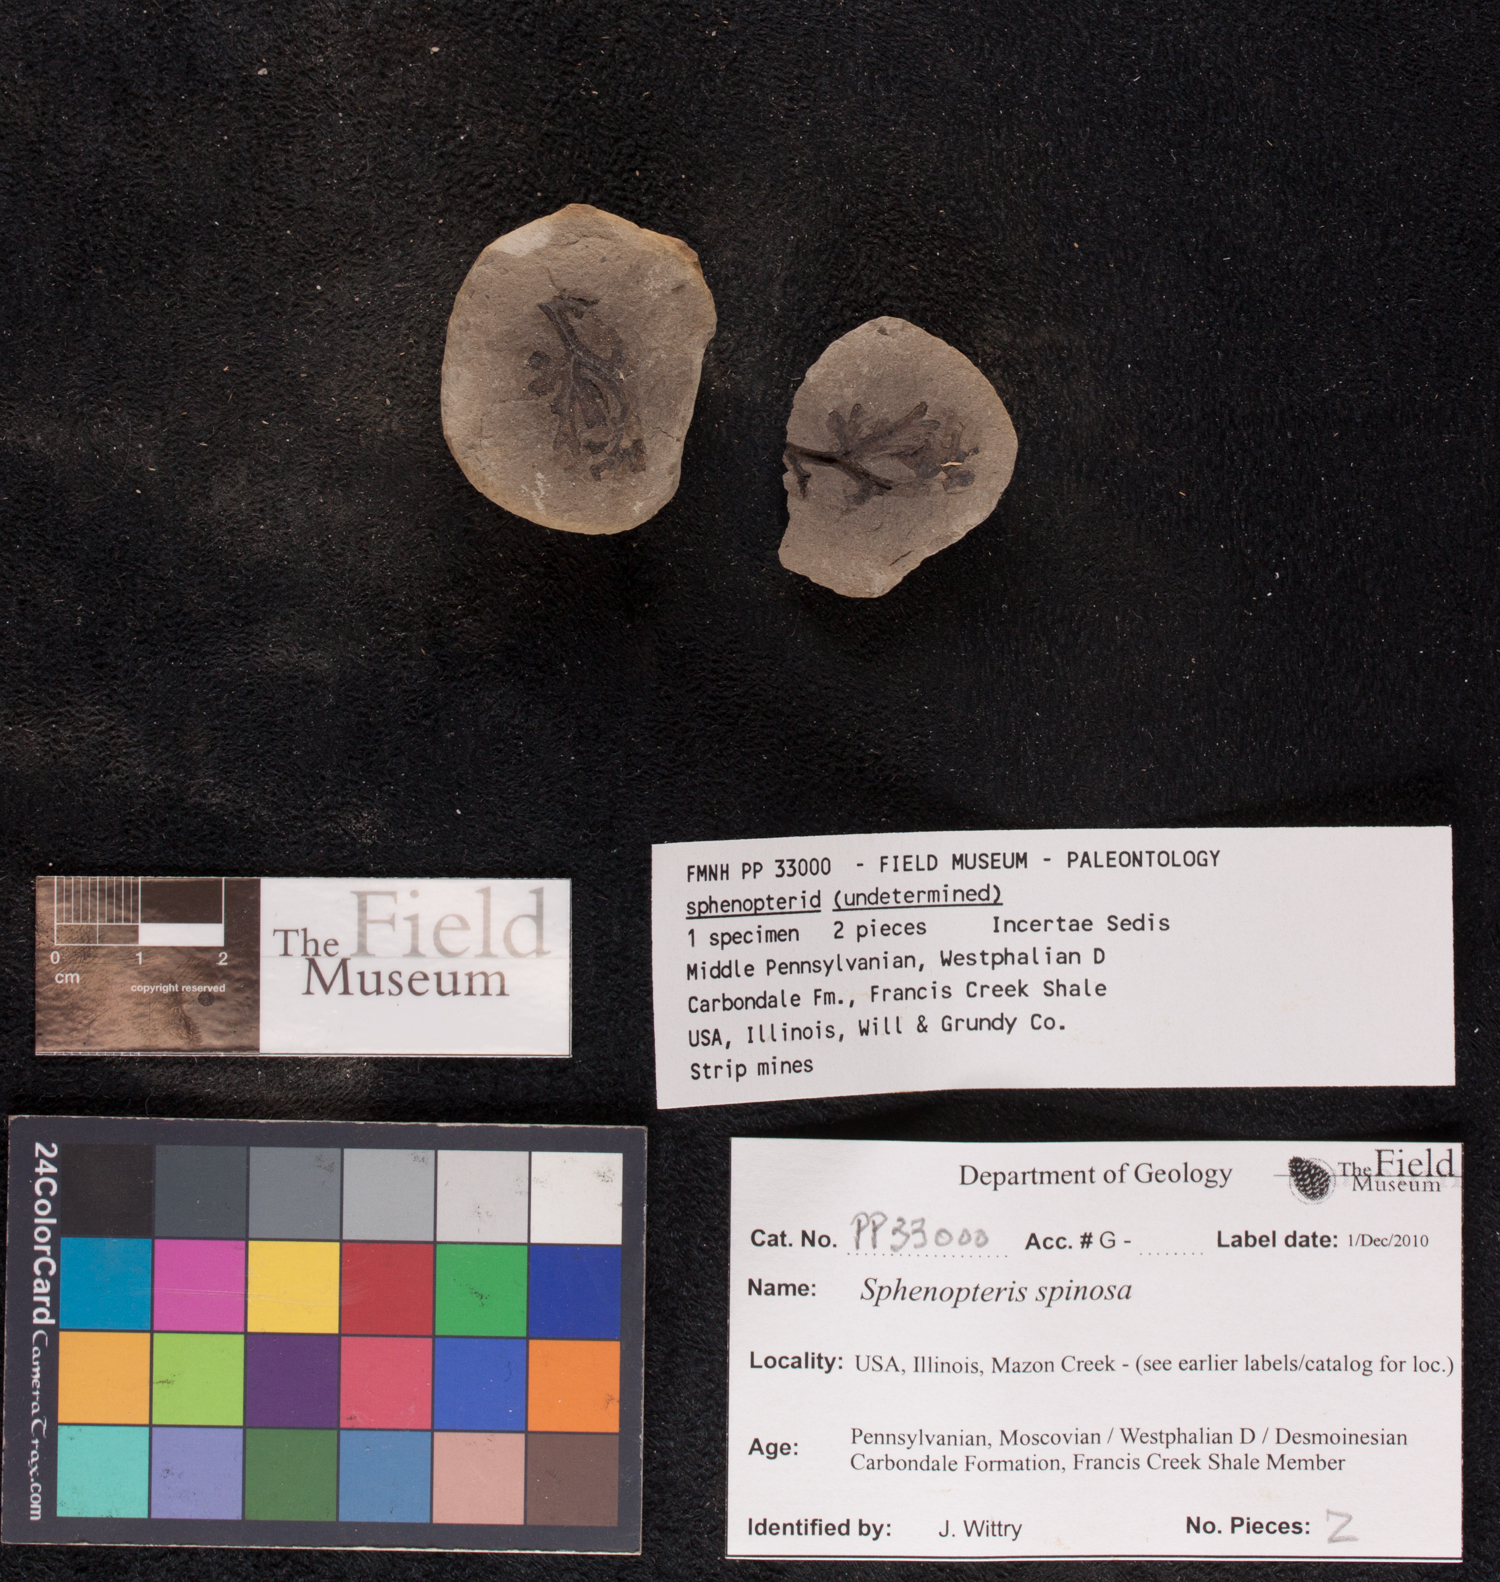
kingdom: Plantae
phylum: Tracheophyta
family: Lyginopteridaceae
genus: Sphenopteris
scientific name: Sphenopteris
